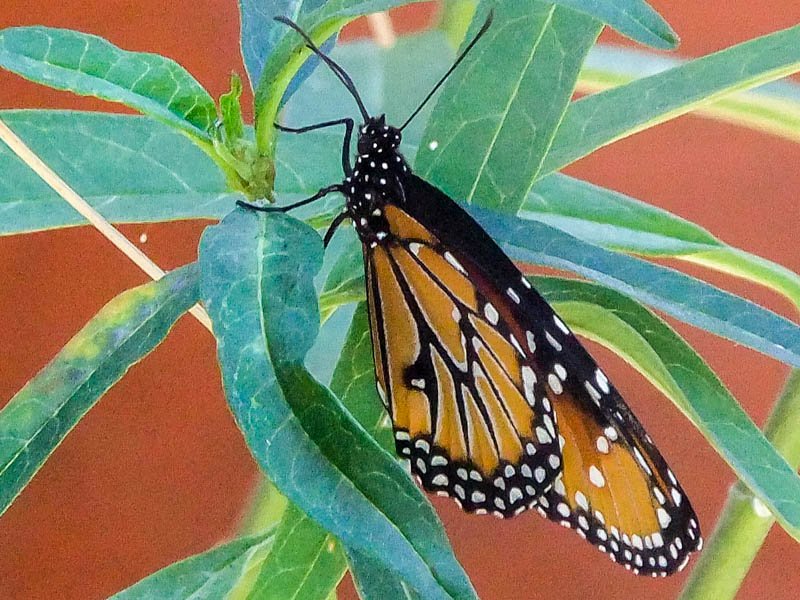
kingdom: Animalia
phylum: Arthropoda
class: Insecta
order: Lepidoptera
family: Nymphalidae
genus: Danaus
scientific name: Danaus gilippus
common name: Queen
